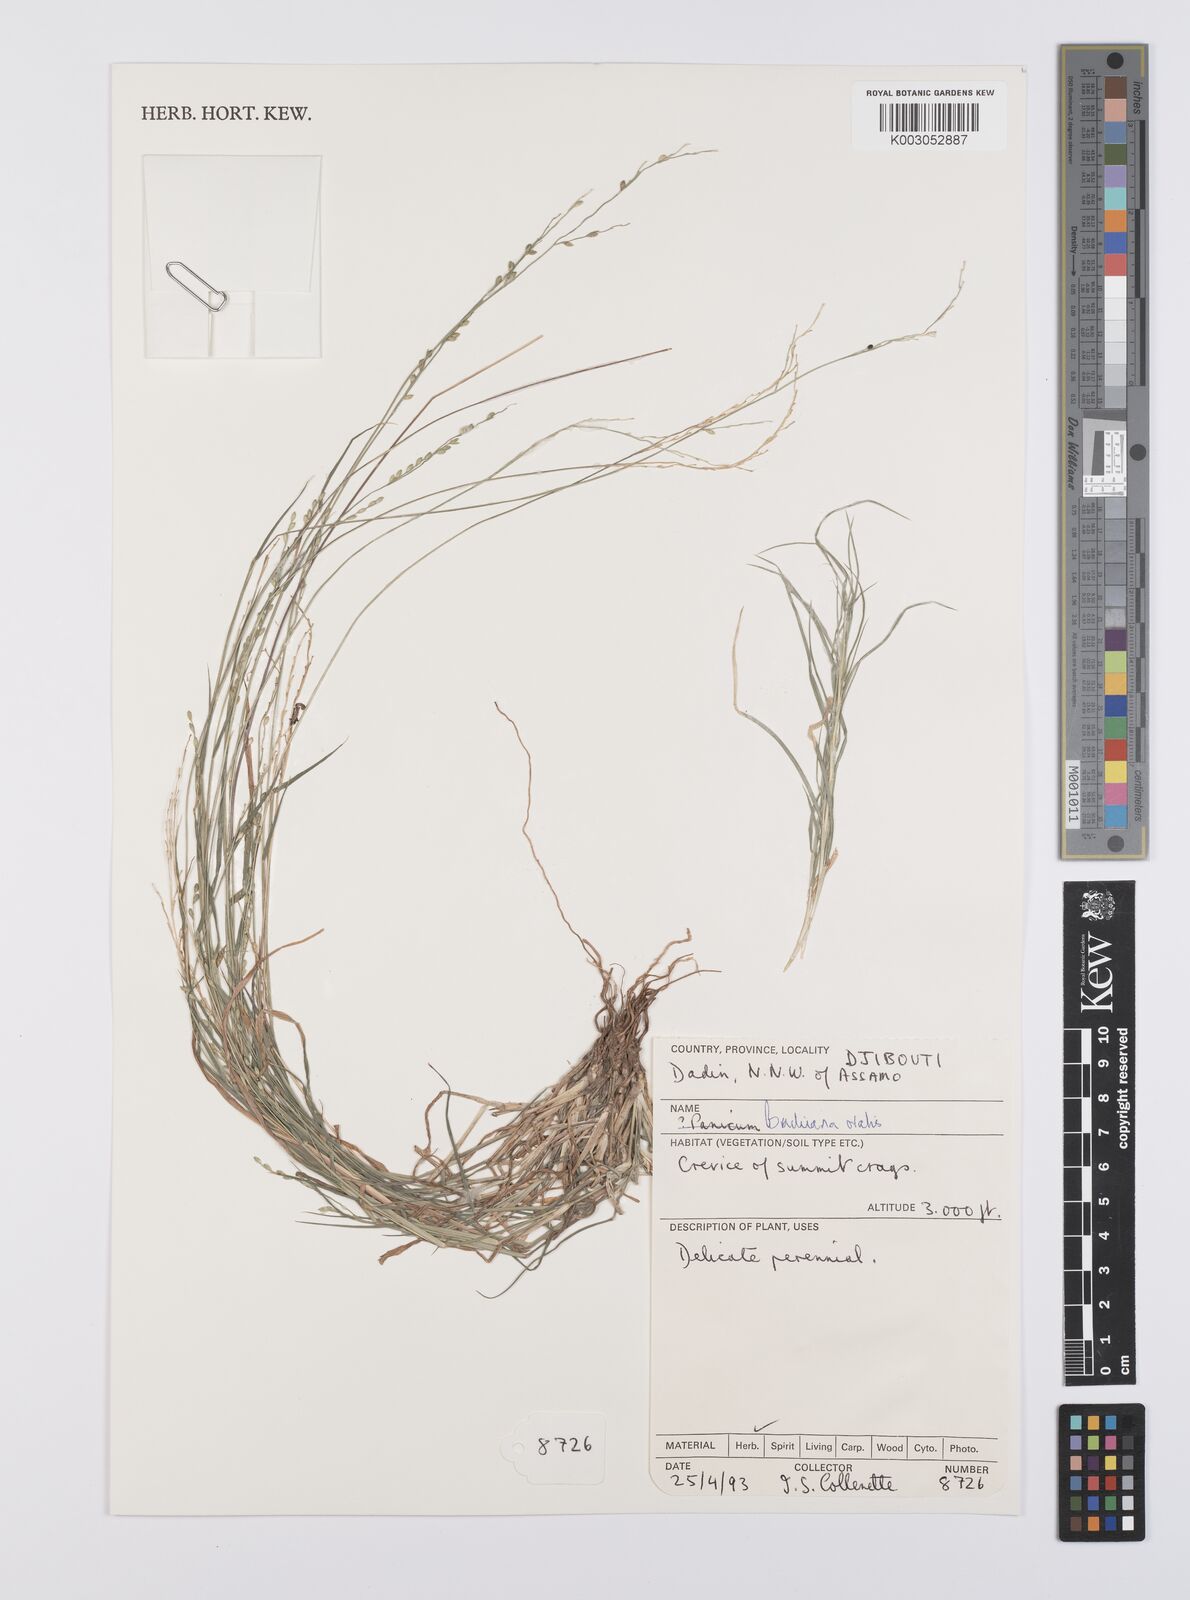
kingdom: Plantae
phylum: Tracheophyta
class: Liliopsida
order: Poales
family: Poaceae
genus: Urochloa
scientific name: Urochloa ovalis
